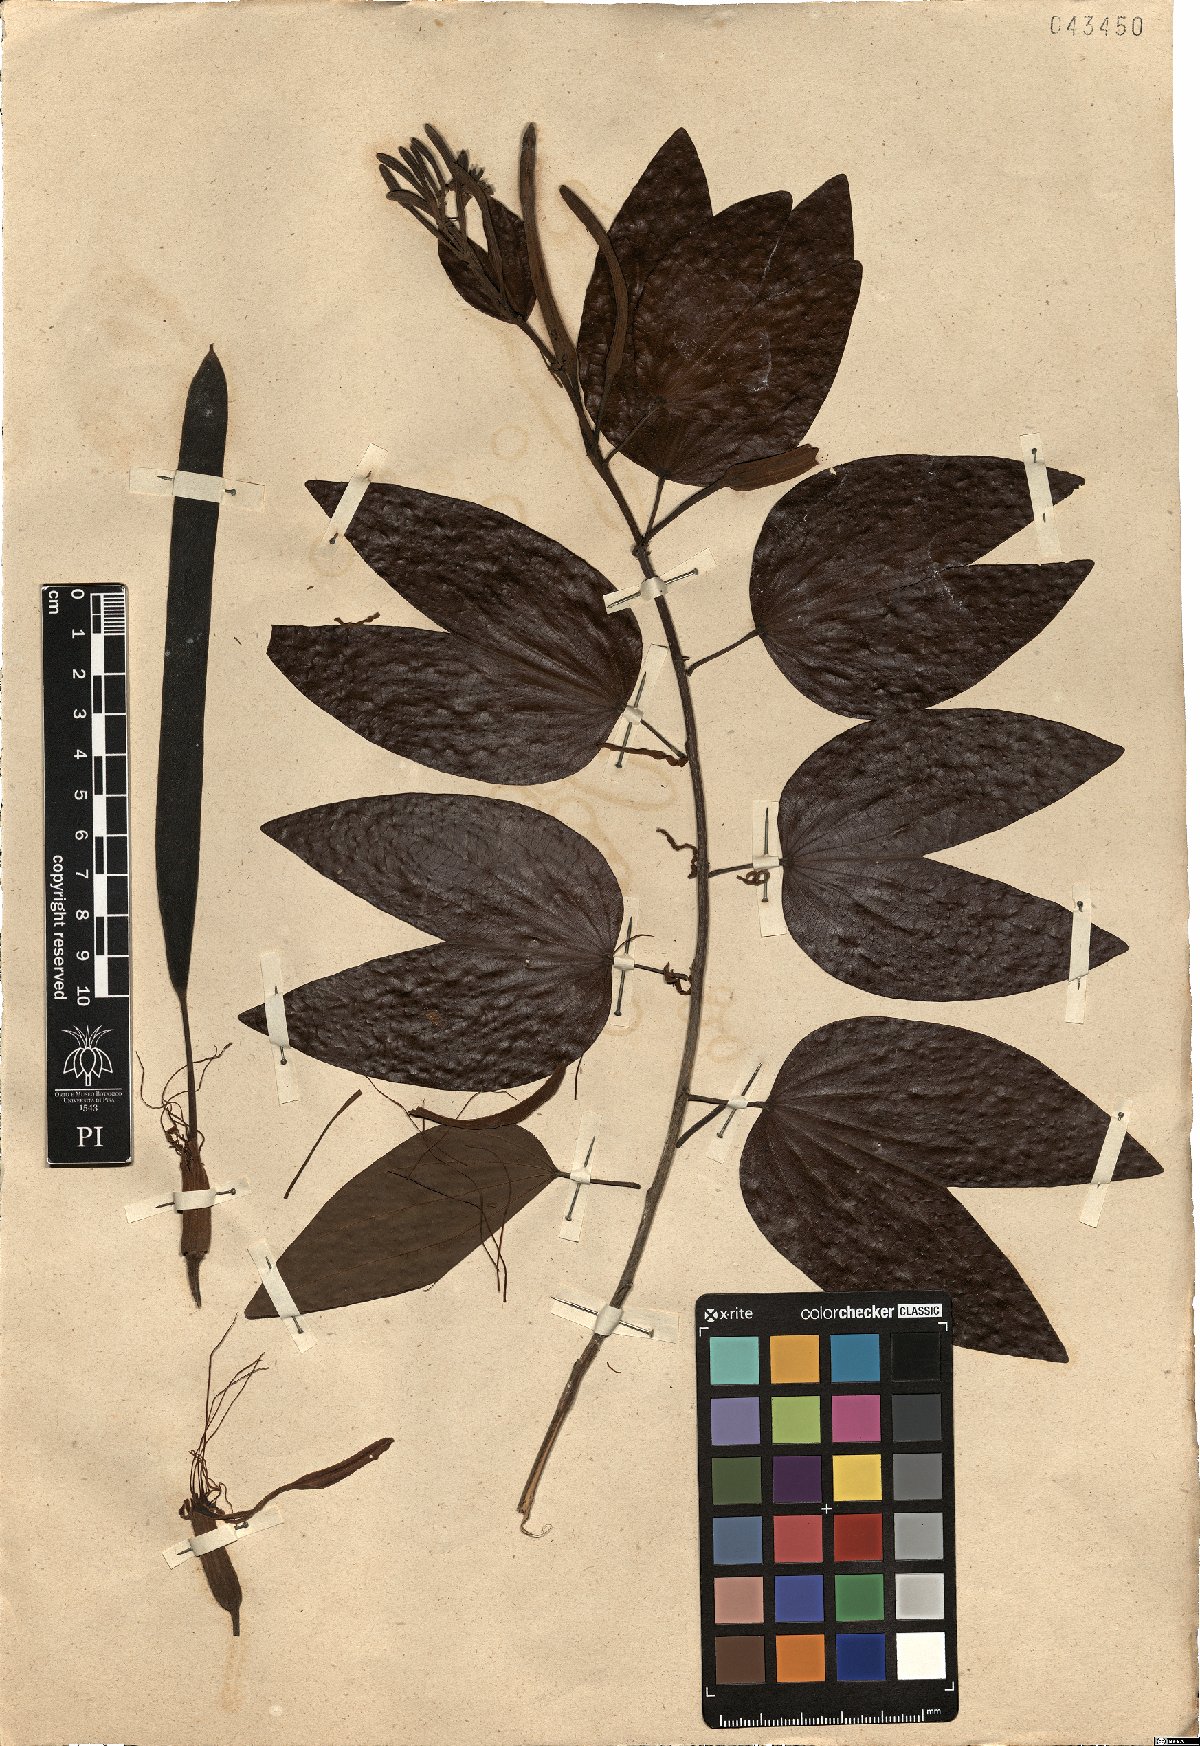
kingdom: Plantae
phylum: Tracheophyta
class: Magnoliopsida
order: Fabales
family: Fabaceae
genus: Bauhinia
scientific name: Bauhinia acuminata
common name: Dwarf white bauhinia
